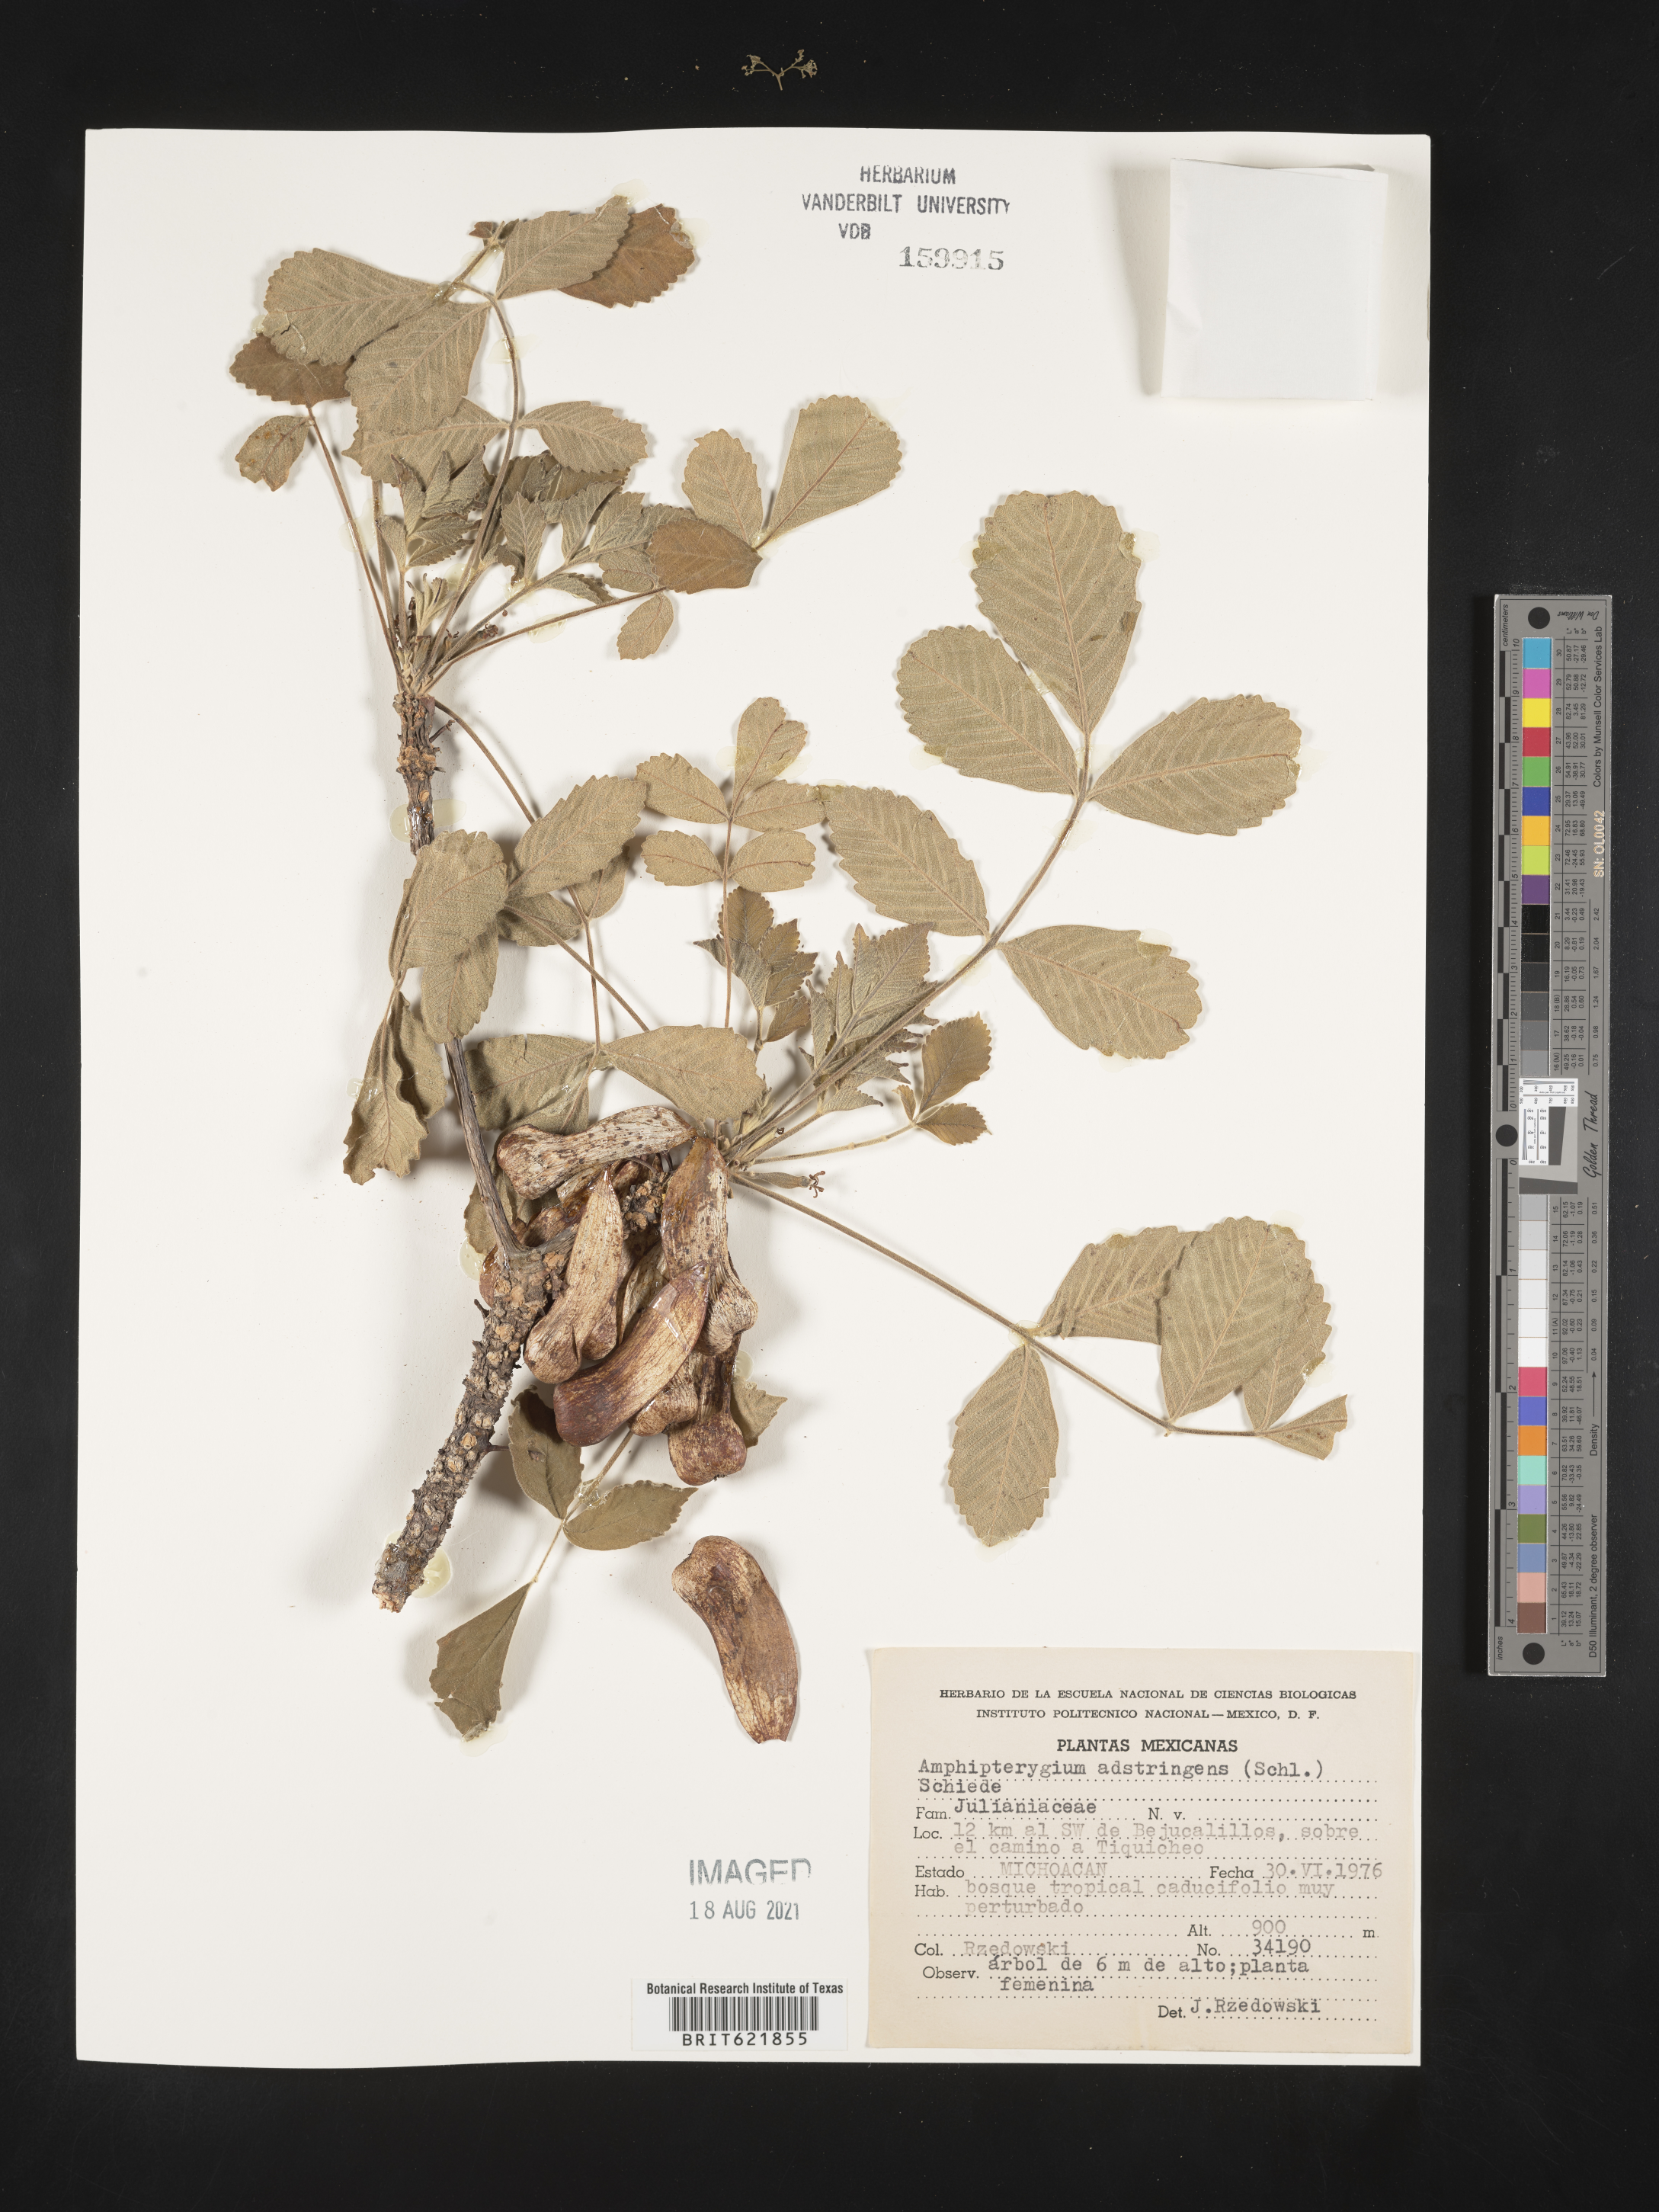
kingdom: Plantae
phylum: Tracheophyta
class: Magnoliopsida
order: Sapindales
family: Anacardiaceae
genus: Amphipterygium
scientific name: Amphipterygium
